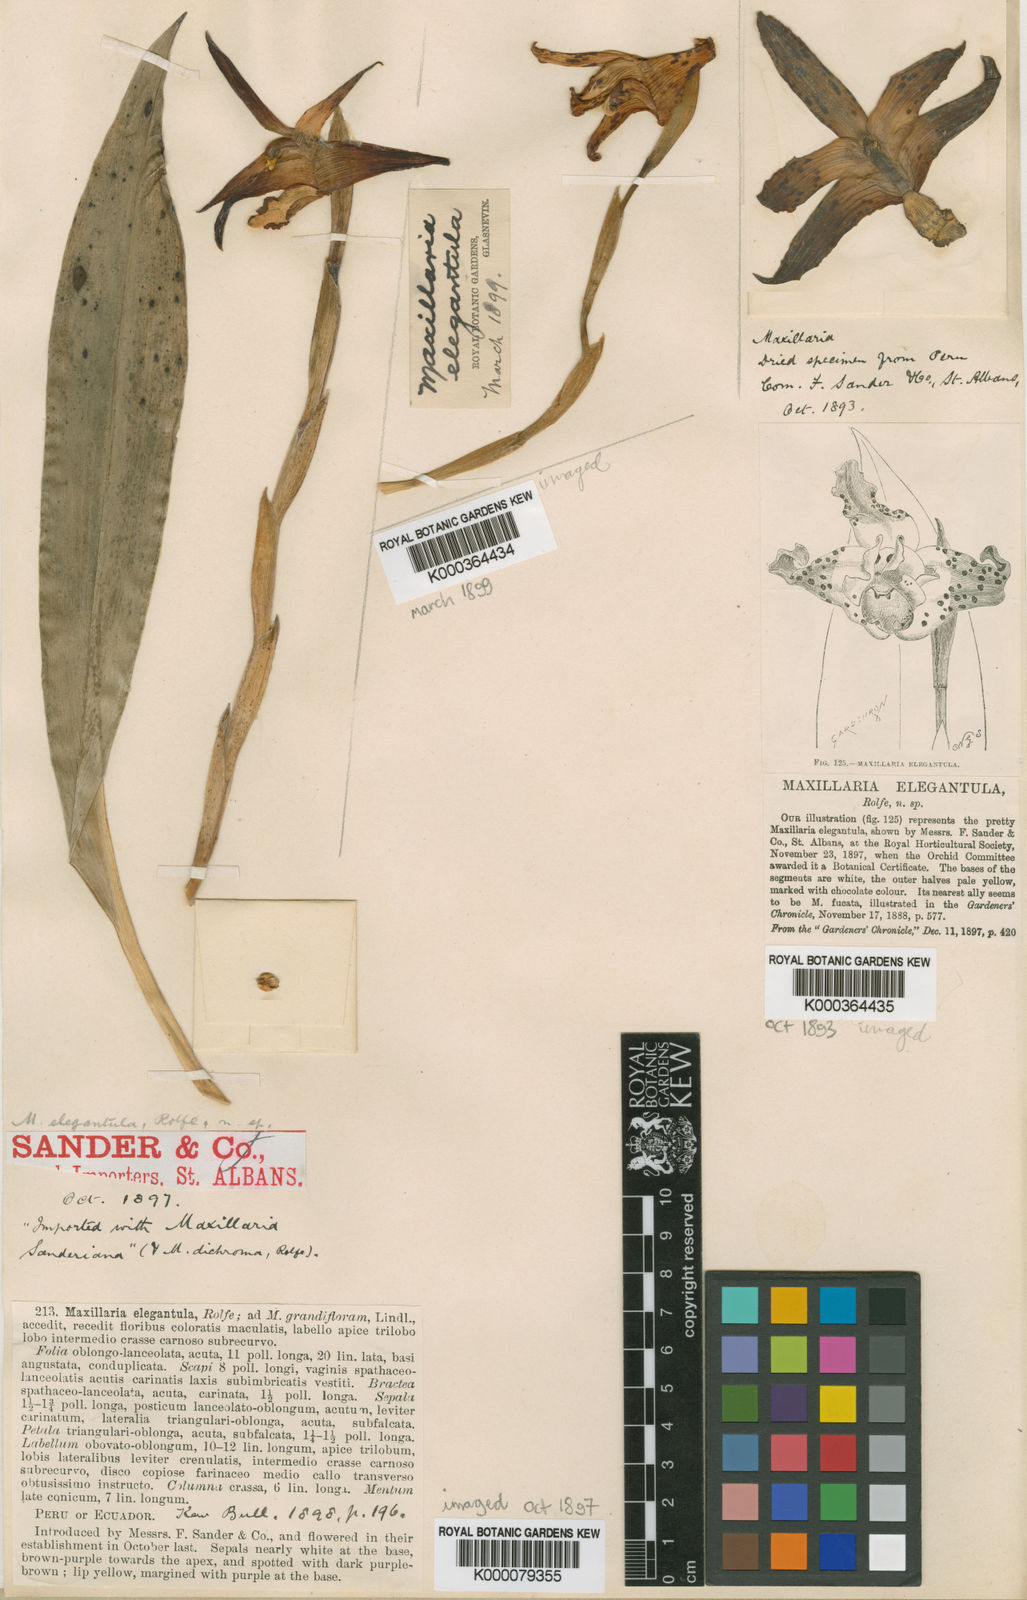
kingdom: Plantae
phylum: Tracheophyta
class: Liliopsida
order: Asparagales
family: Orchidaceae
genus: Maxillaria
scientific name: Maxillaria elegantula
